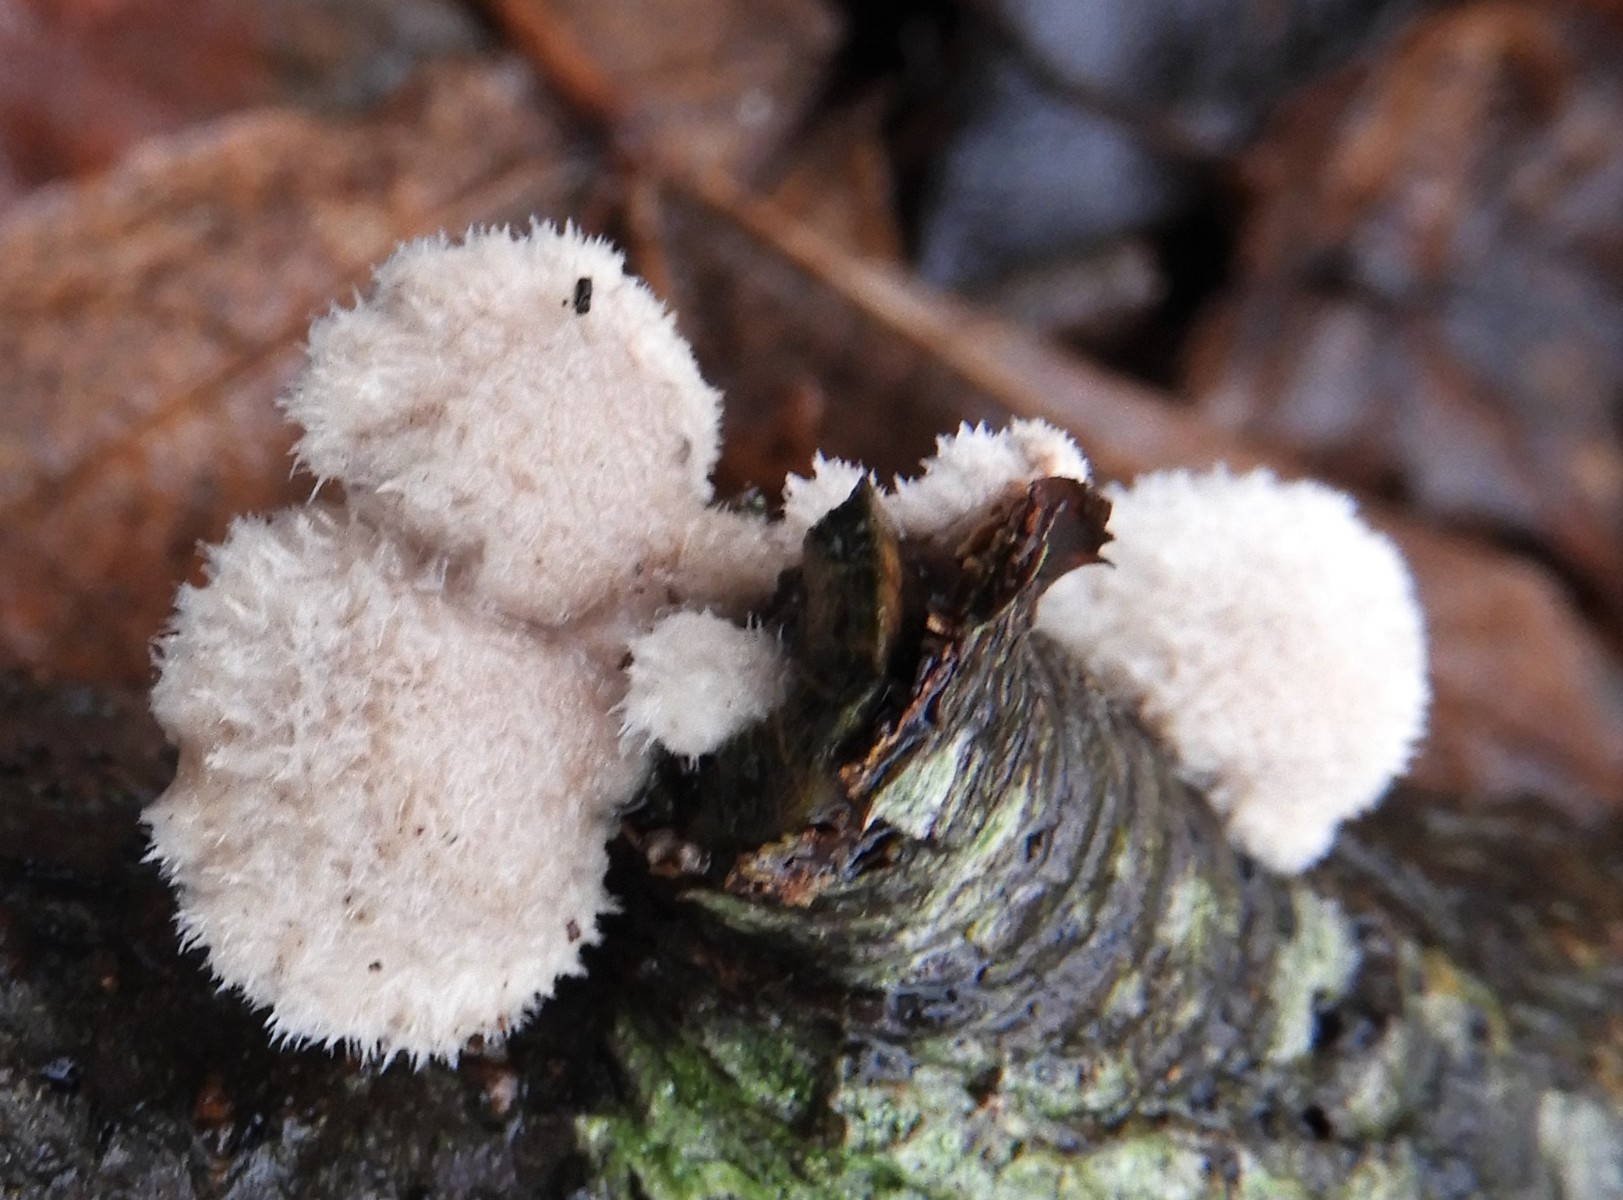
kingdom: Fungi
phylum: Basidiomycota
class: Agaricomycetes
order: Agaricales
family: Schizophyllaceae
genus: Schizophyllum
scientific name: Schizophyllum commune
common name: kløvblad
